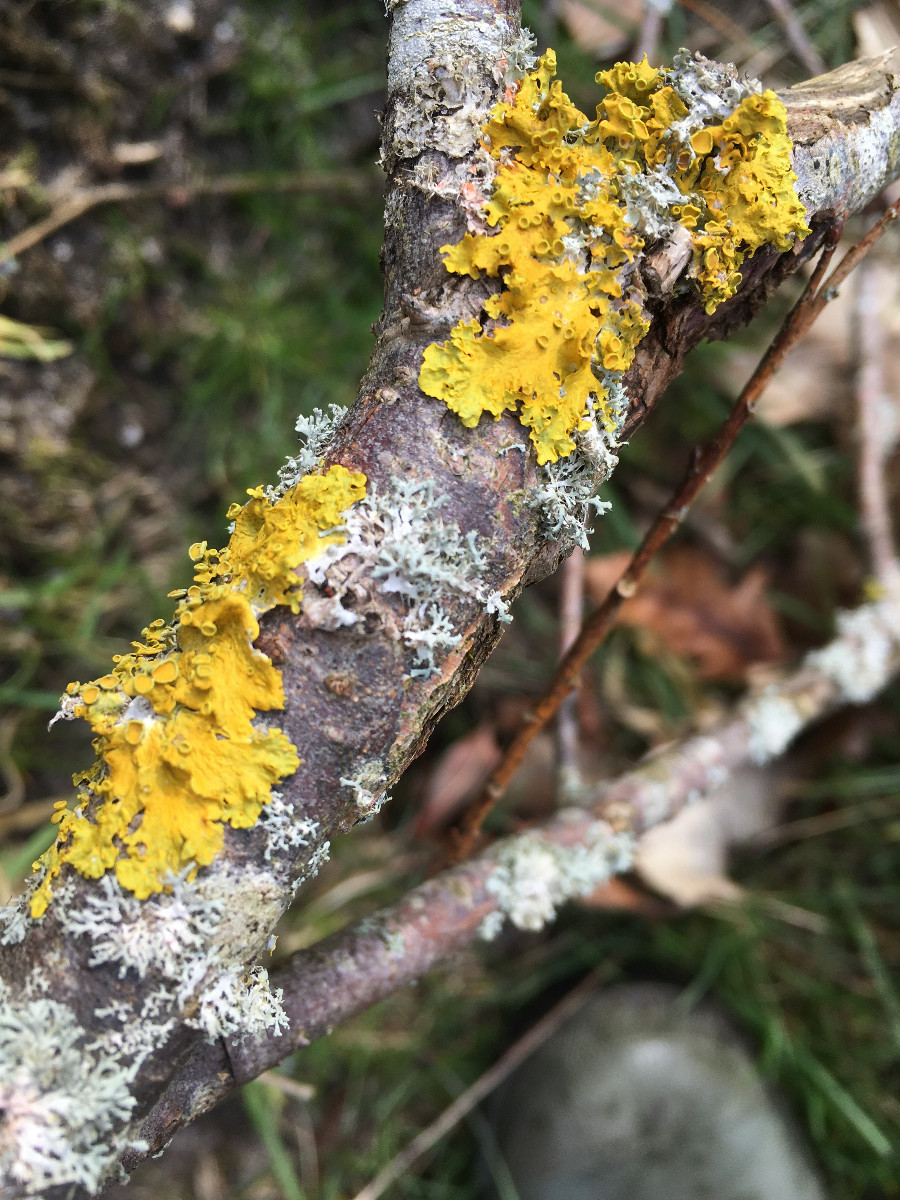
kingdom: Fungi
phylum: Ascomycota
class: Lecanoromycetes
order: Teloschistales
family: Teloschistaceae
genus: Xanthoria
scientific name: Xanthoria parietina
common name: almindelig væggelav
